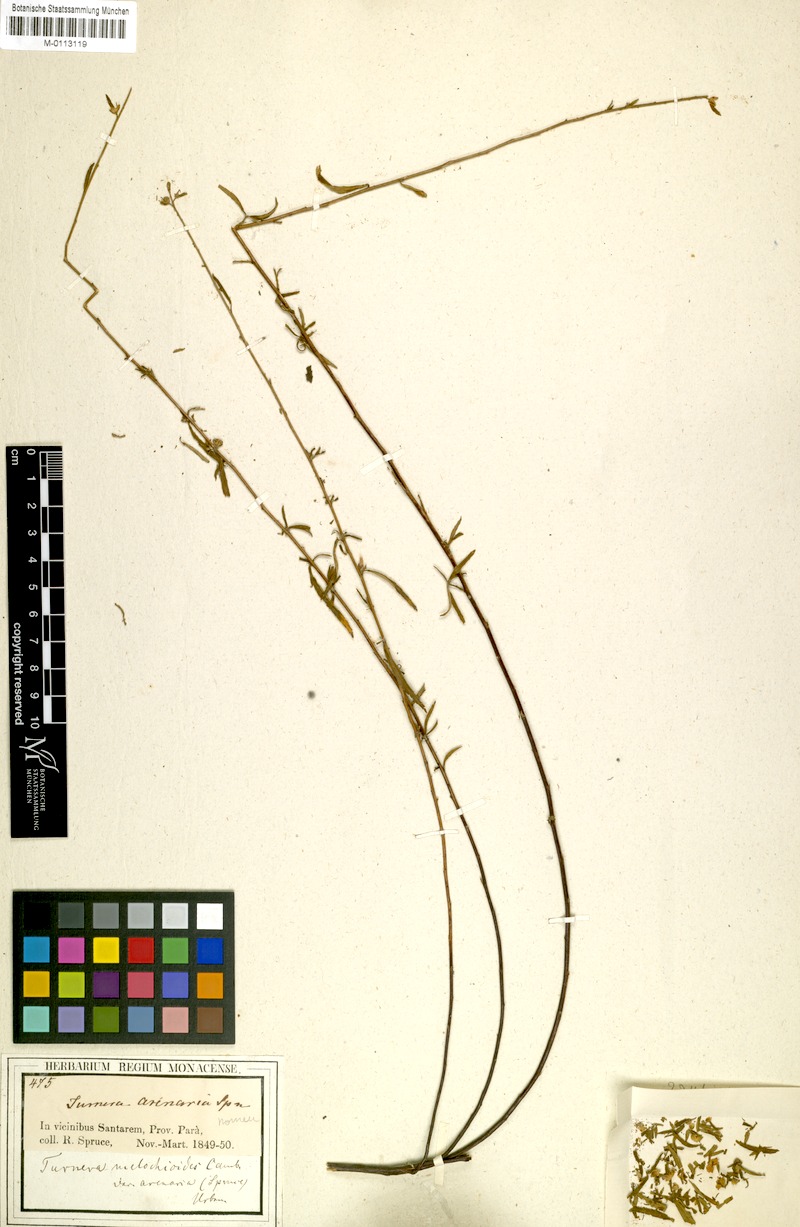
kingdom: Plantae
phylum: Tracheophyta
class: Magnoliopsida
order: Malpighiales
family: Turneraceae
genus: Turnera
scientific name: Turnera melochioides
